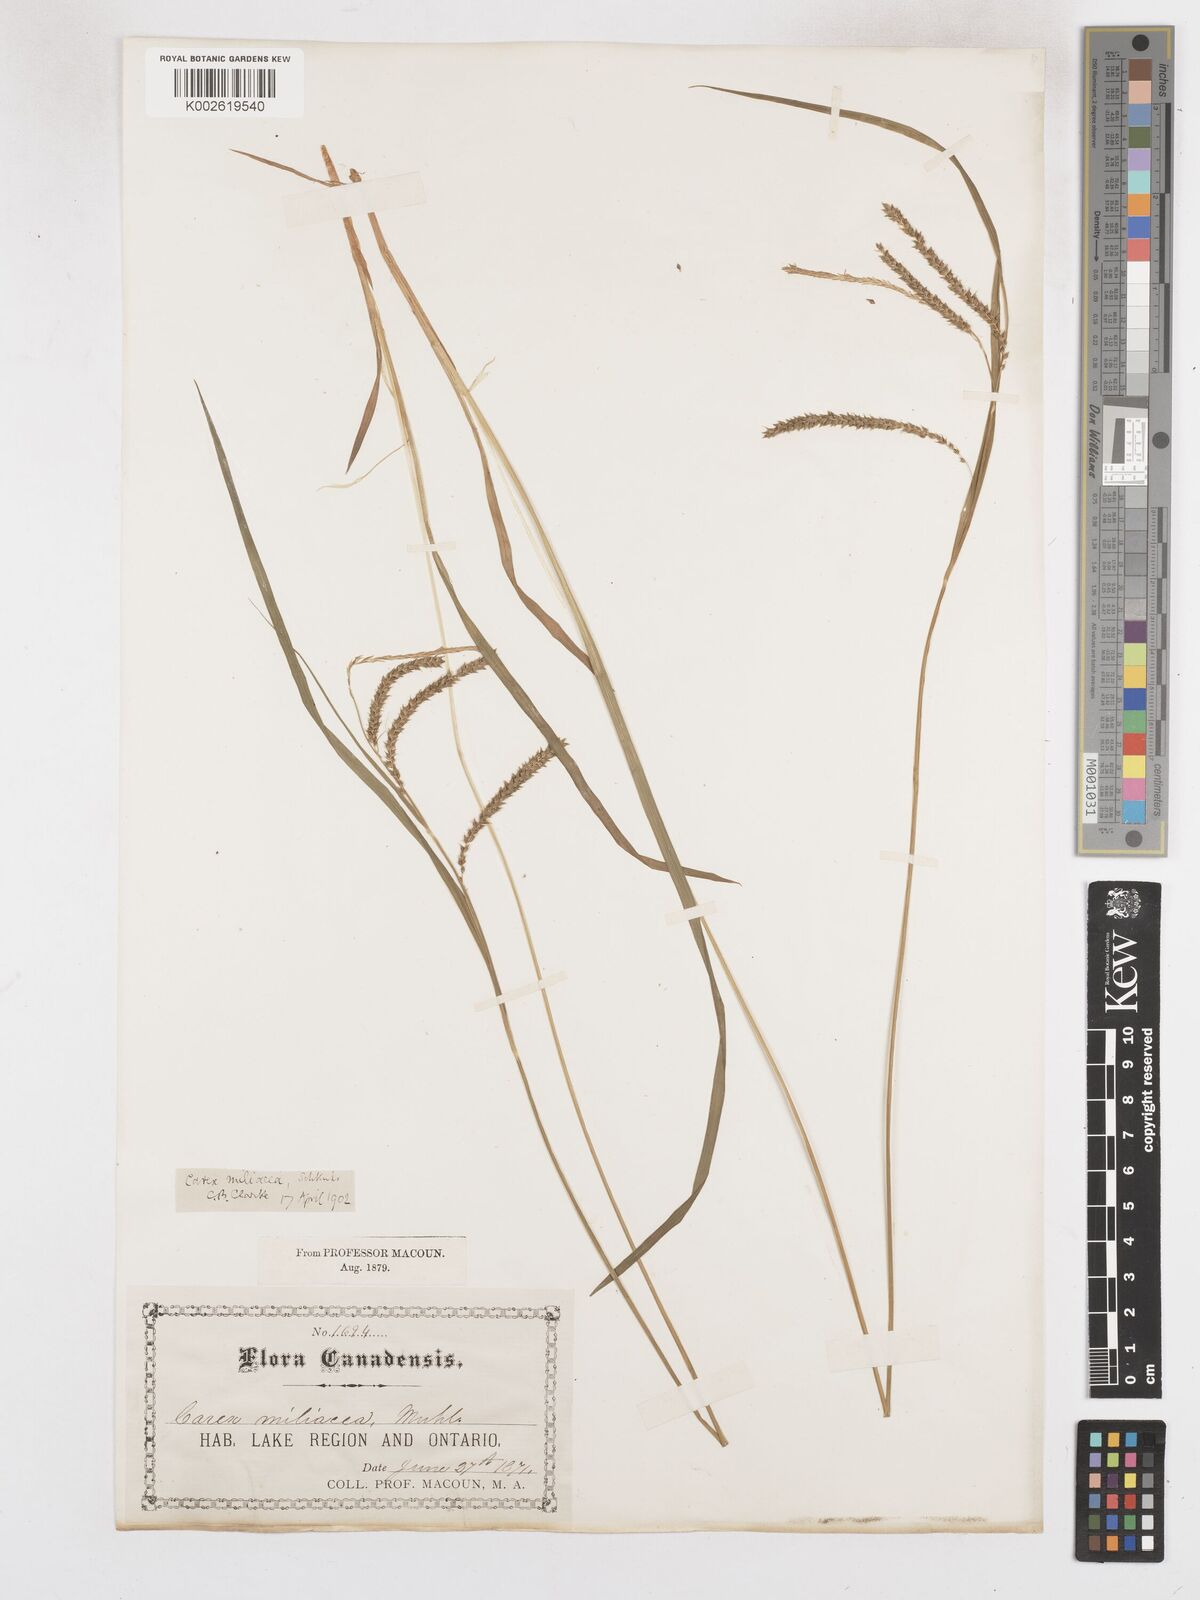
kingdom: Plantae
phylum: Tracheophyta
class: Liliopsida
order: Poales
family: Cyperaceae
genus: Carex
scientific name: Carex prasina
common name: Drooping sedge
